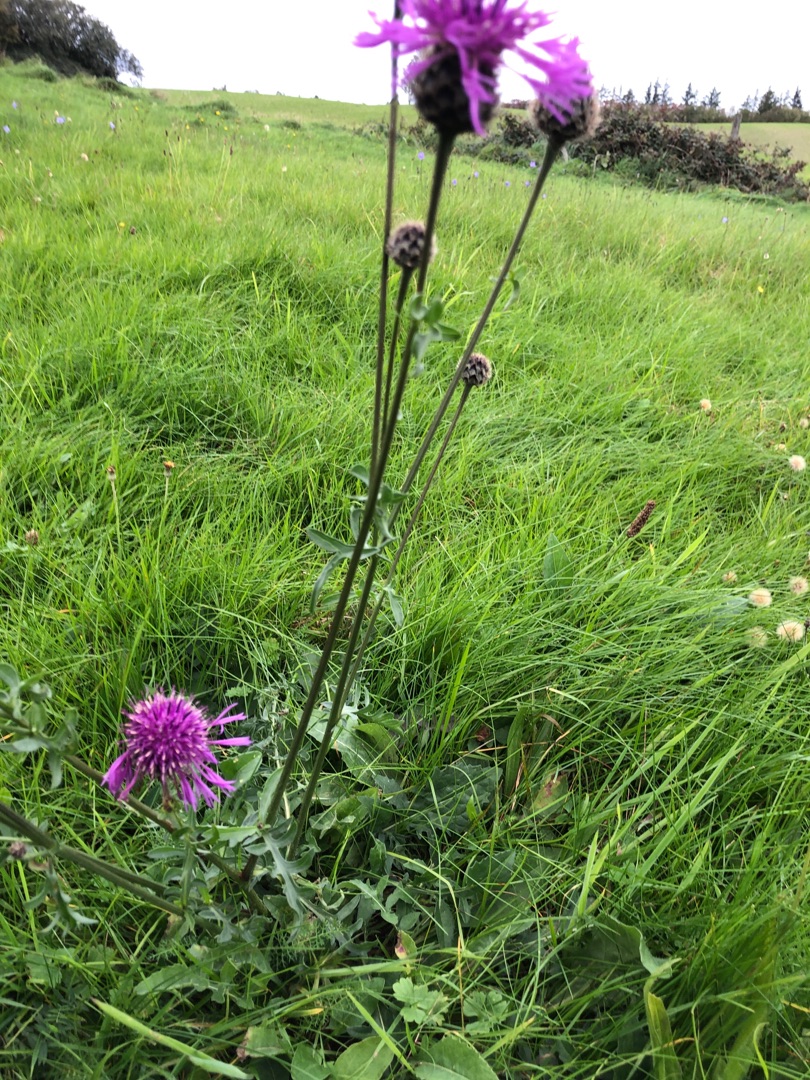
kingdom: Plantae
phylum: Tracheophyta
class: Magnoliopsida
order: Asterales
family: Asteraceae
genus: Centaurea
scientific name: Centaurea scabiosa
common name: Stor knopurt
